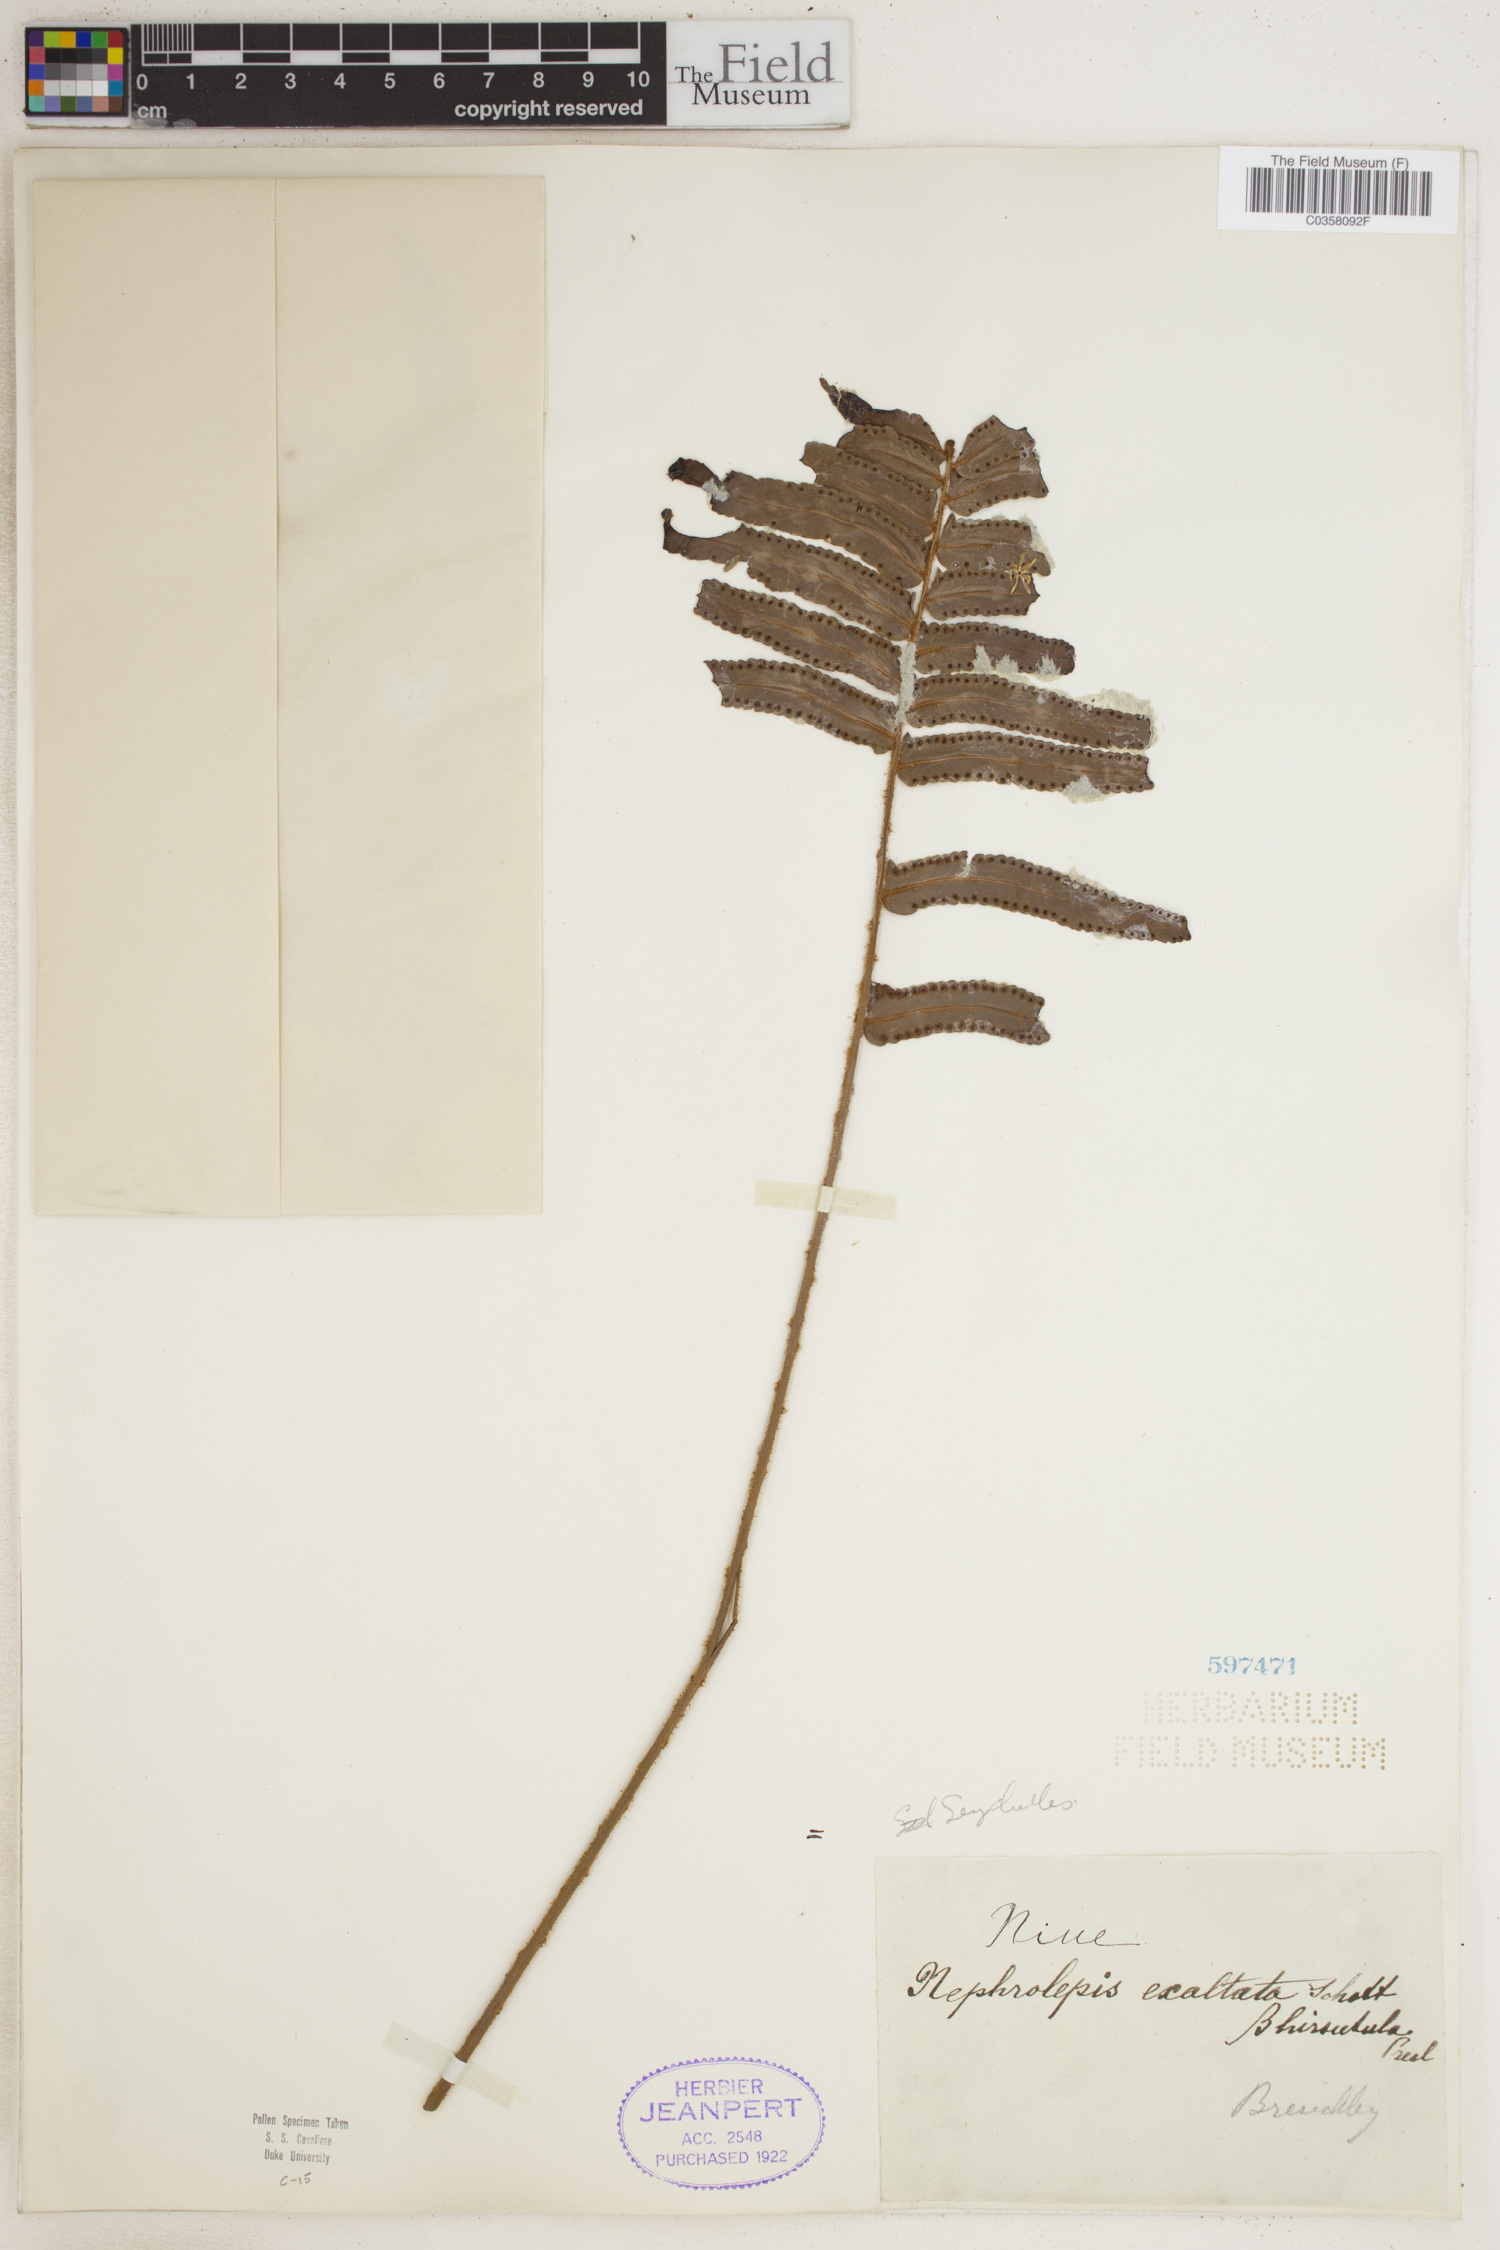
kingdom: Plantae
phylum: Tracheophyta
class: Polypodiopsida
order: Polypodiales
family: Nephrolepidaceae
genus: Nephrolepis
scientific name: Nephrolepis exaltata
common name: Sword fern
